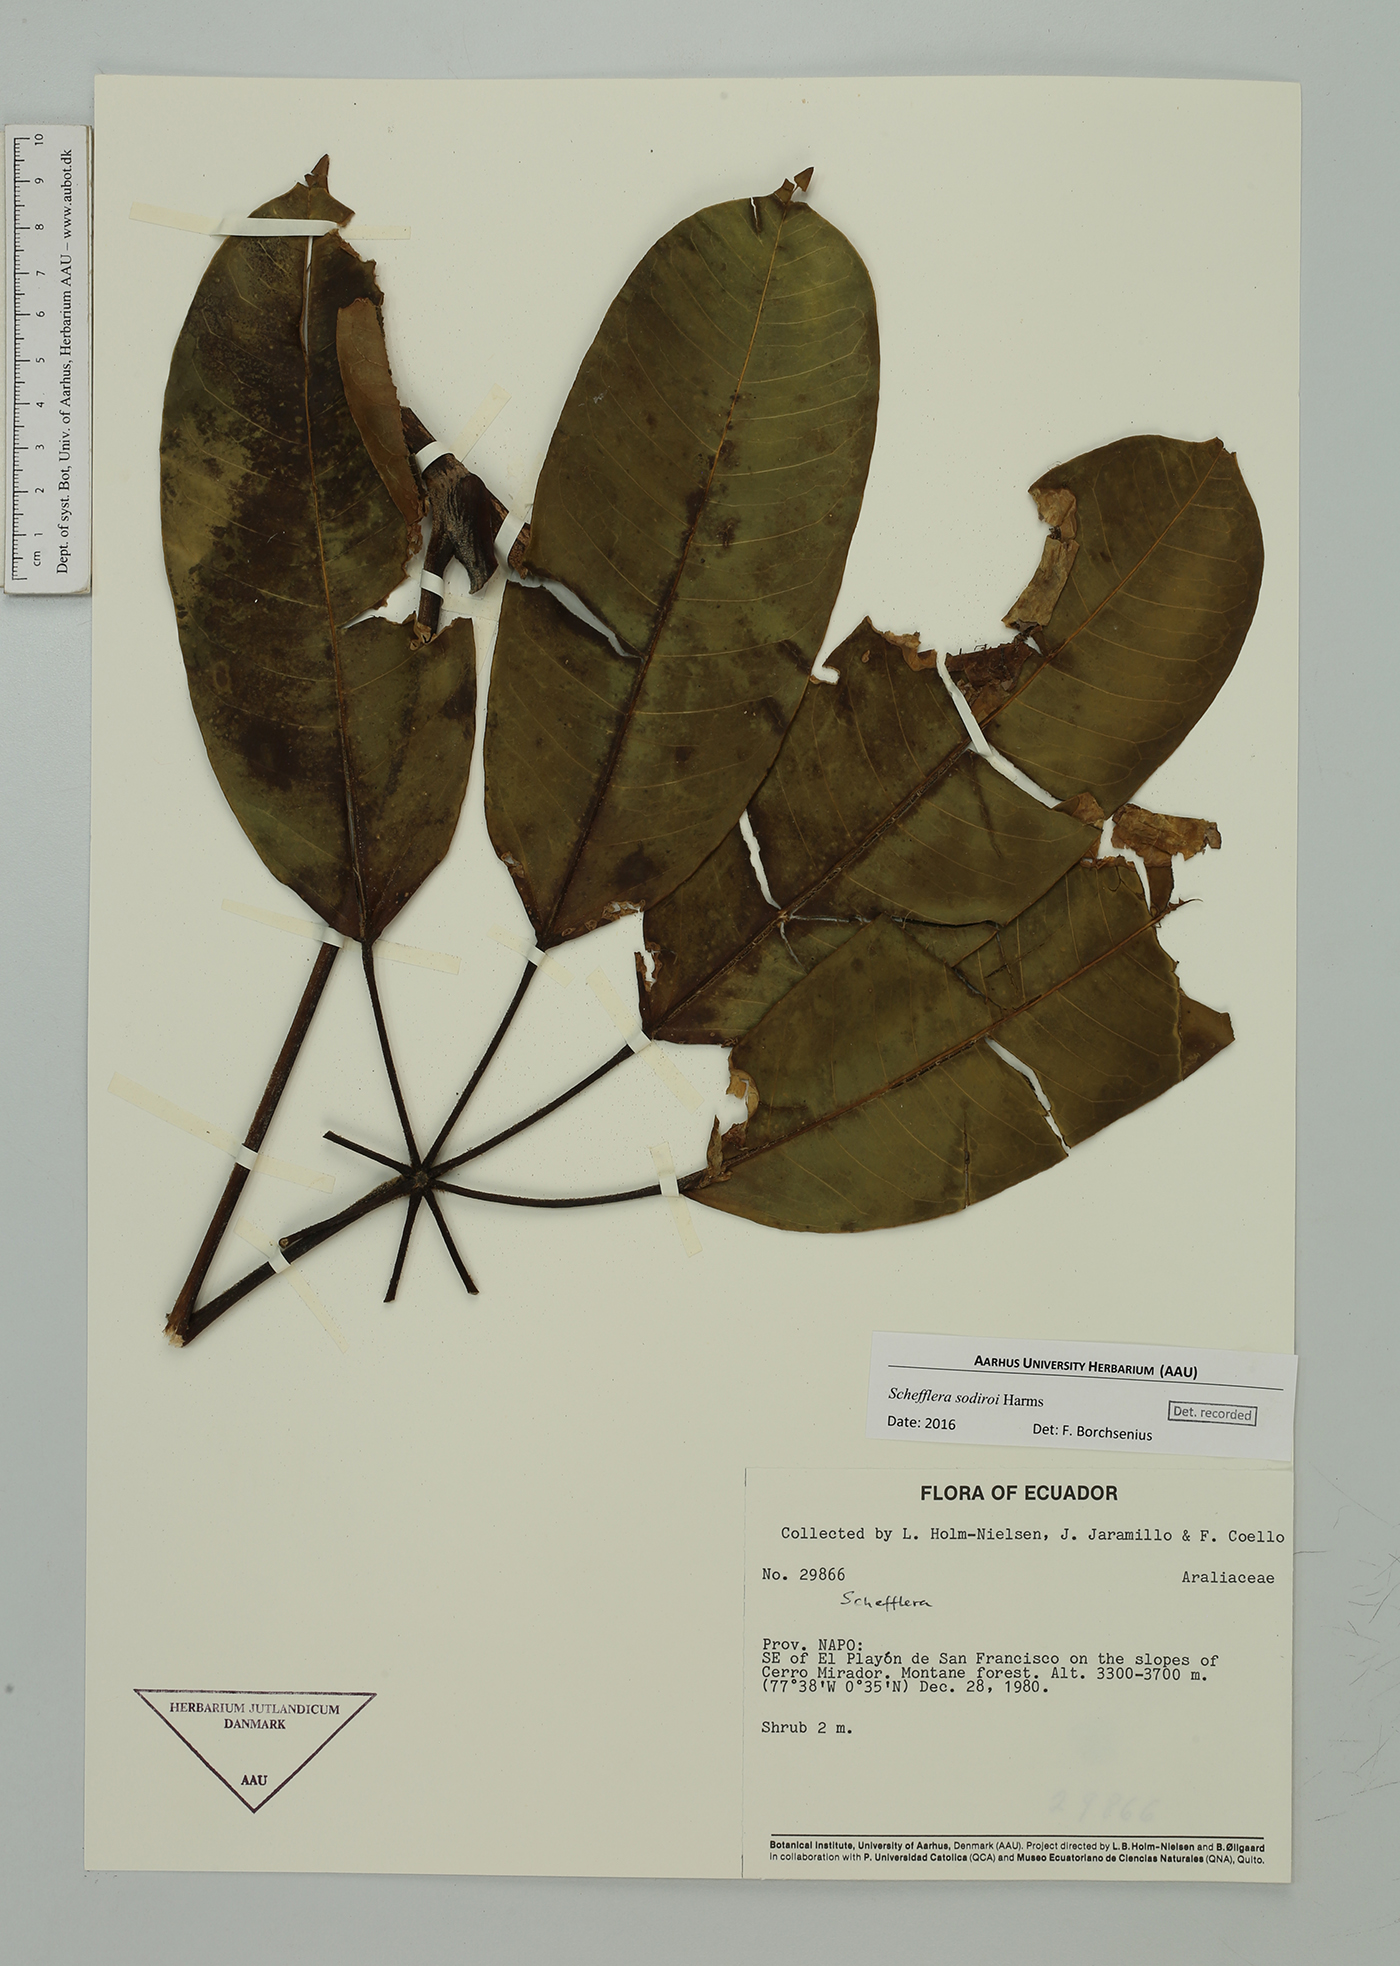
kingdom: Plantae
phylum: Tracheophyta
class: Magnoliopsida
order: Apiales
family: Araliaceae
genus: Sciodaphyllum
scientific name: Sciodaphyllum basiorevolutum
